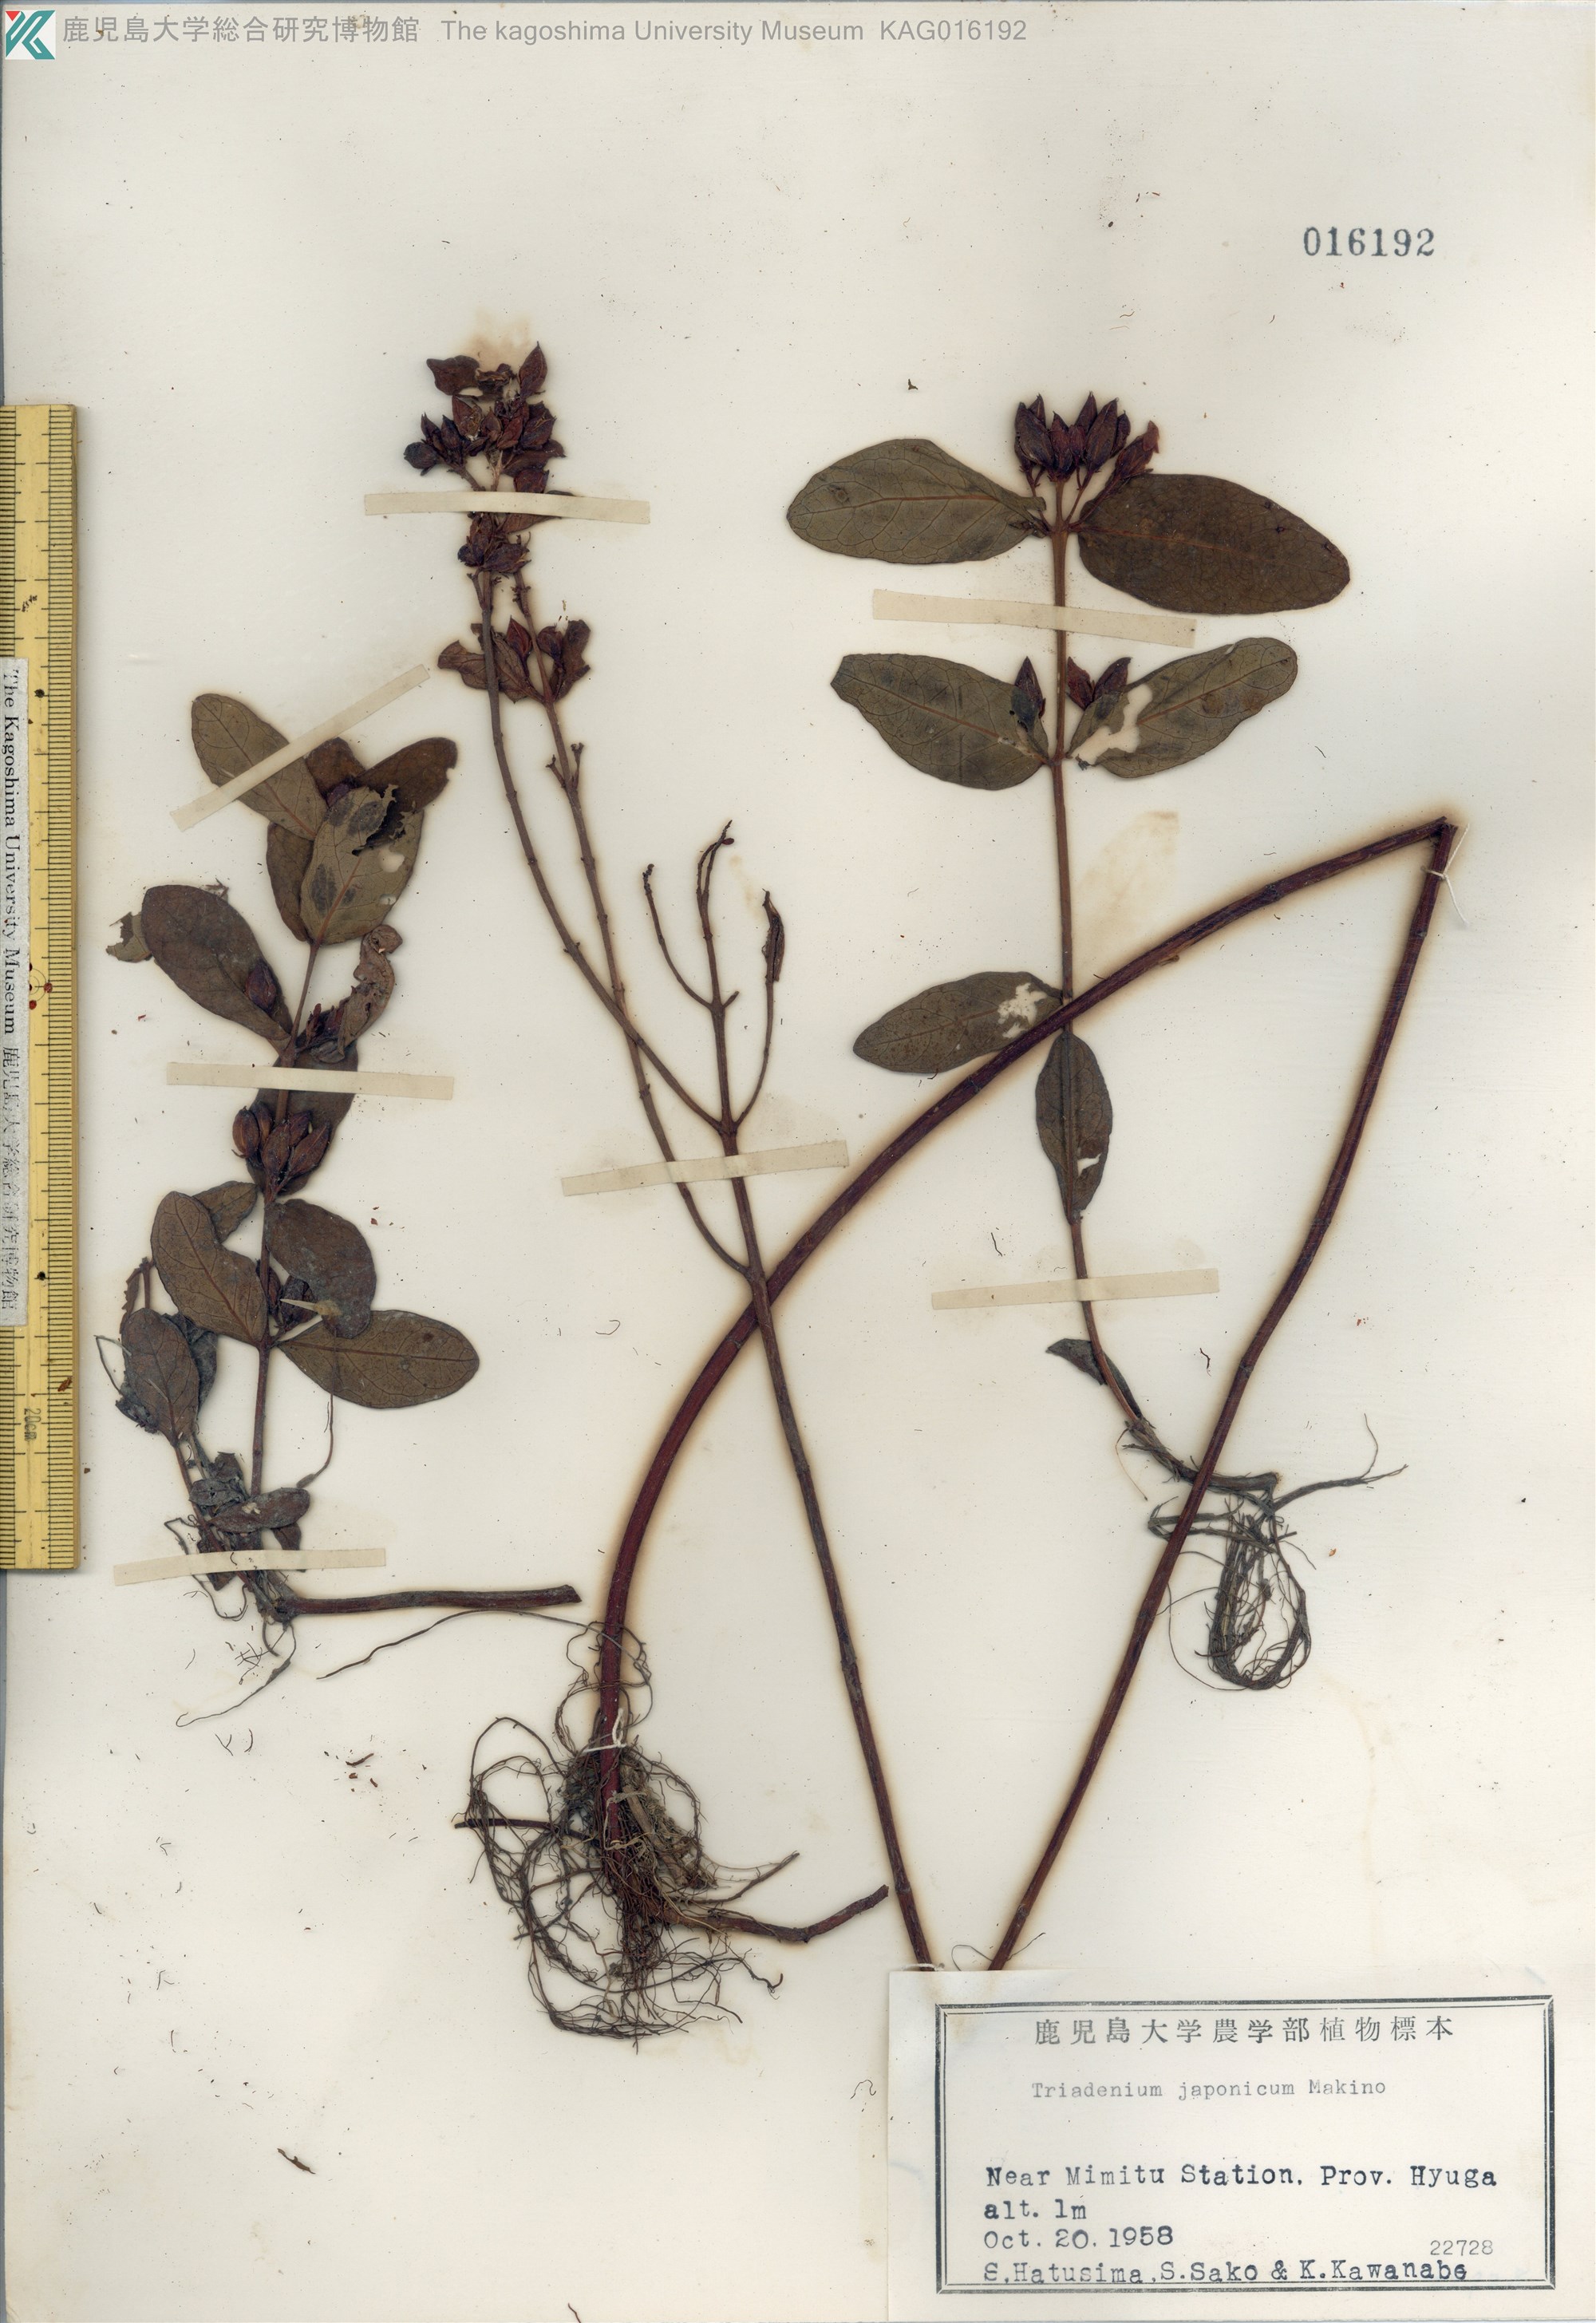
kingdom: Plantae
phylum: Tracheophyta
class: Magnoliopsida
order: Malpighiales
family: Hypericaceae
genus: Triadenum
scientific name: Triadenum japonicum
